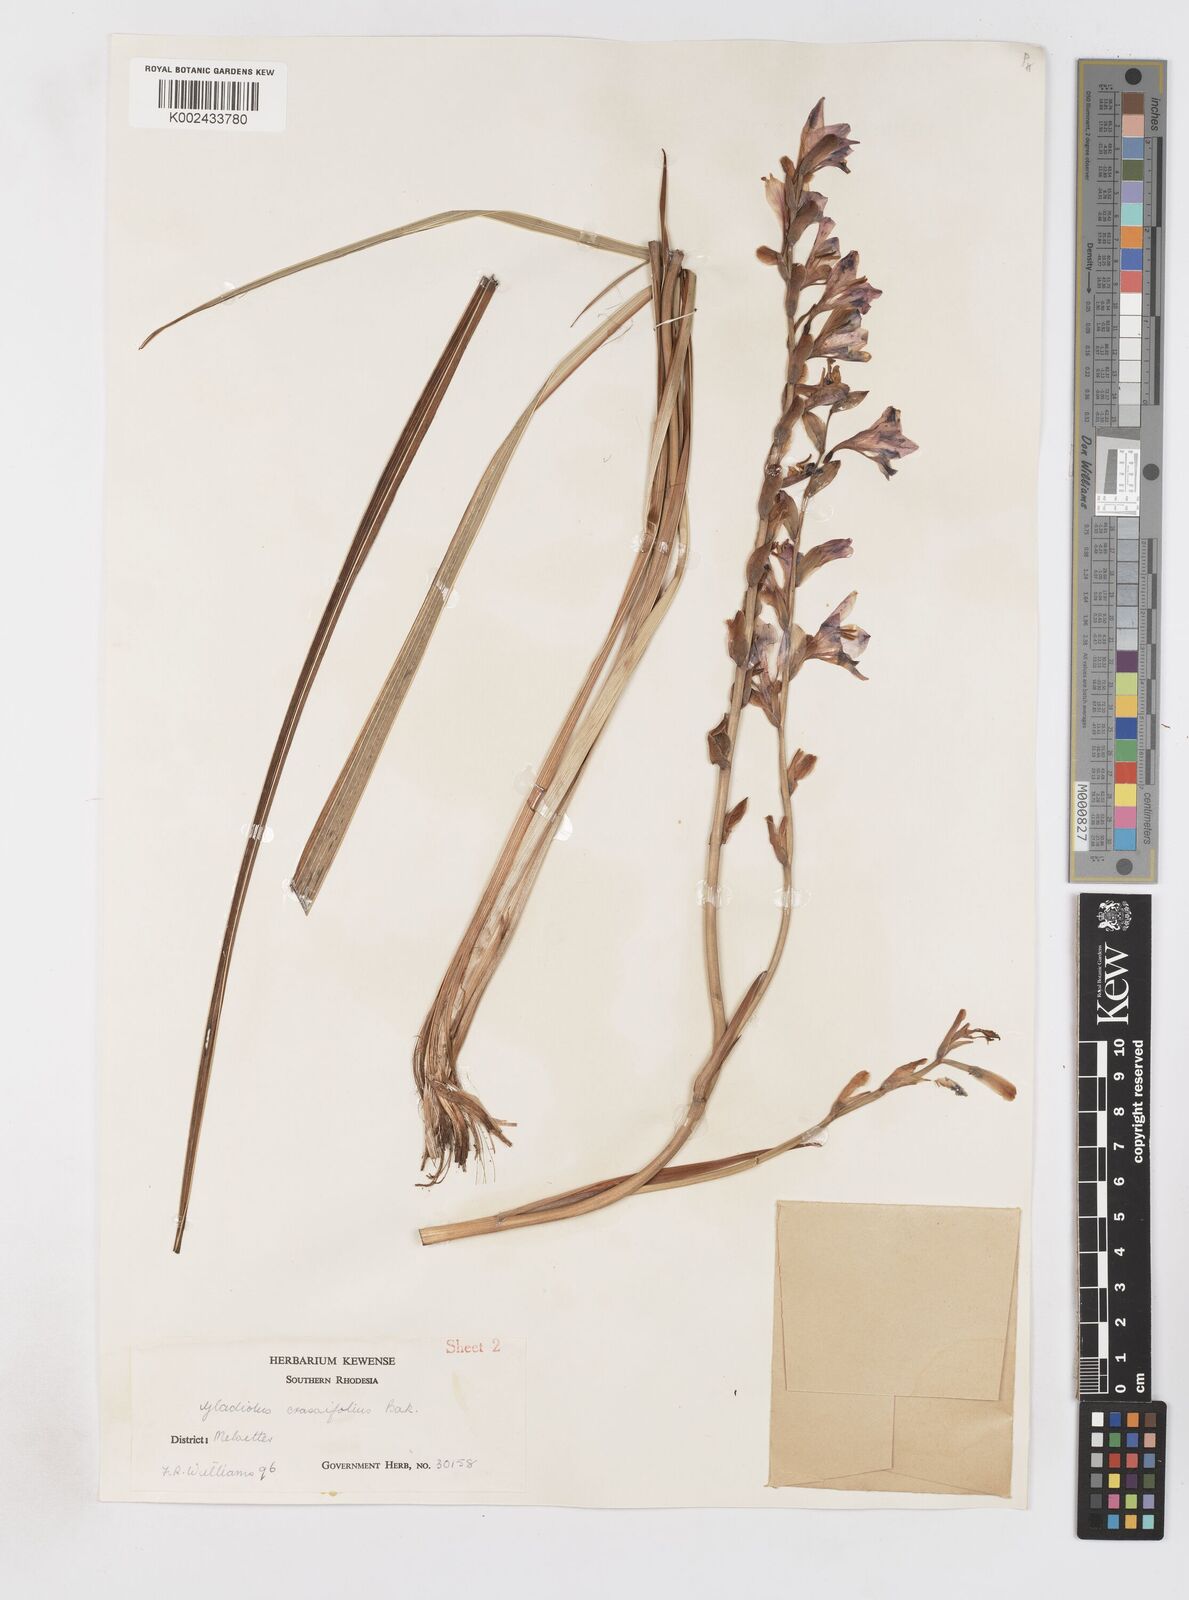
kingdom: Plantae
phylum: Tracheophyta
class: Liliopsida
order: Asparagales
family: Iridaceae
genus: Gladiolus
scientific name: Gladiolus crassifolius
